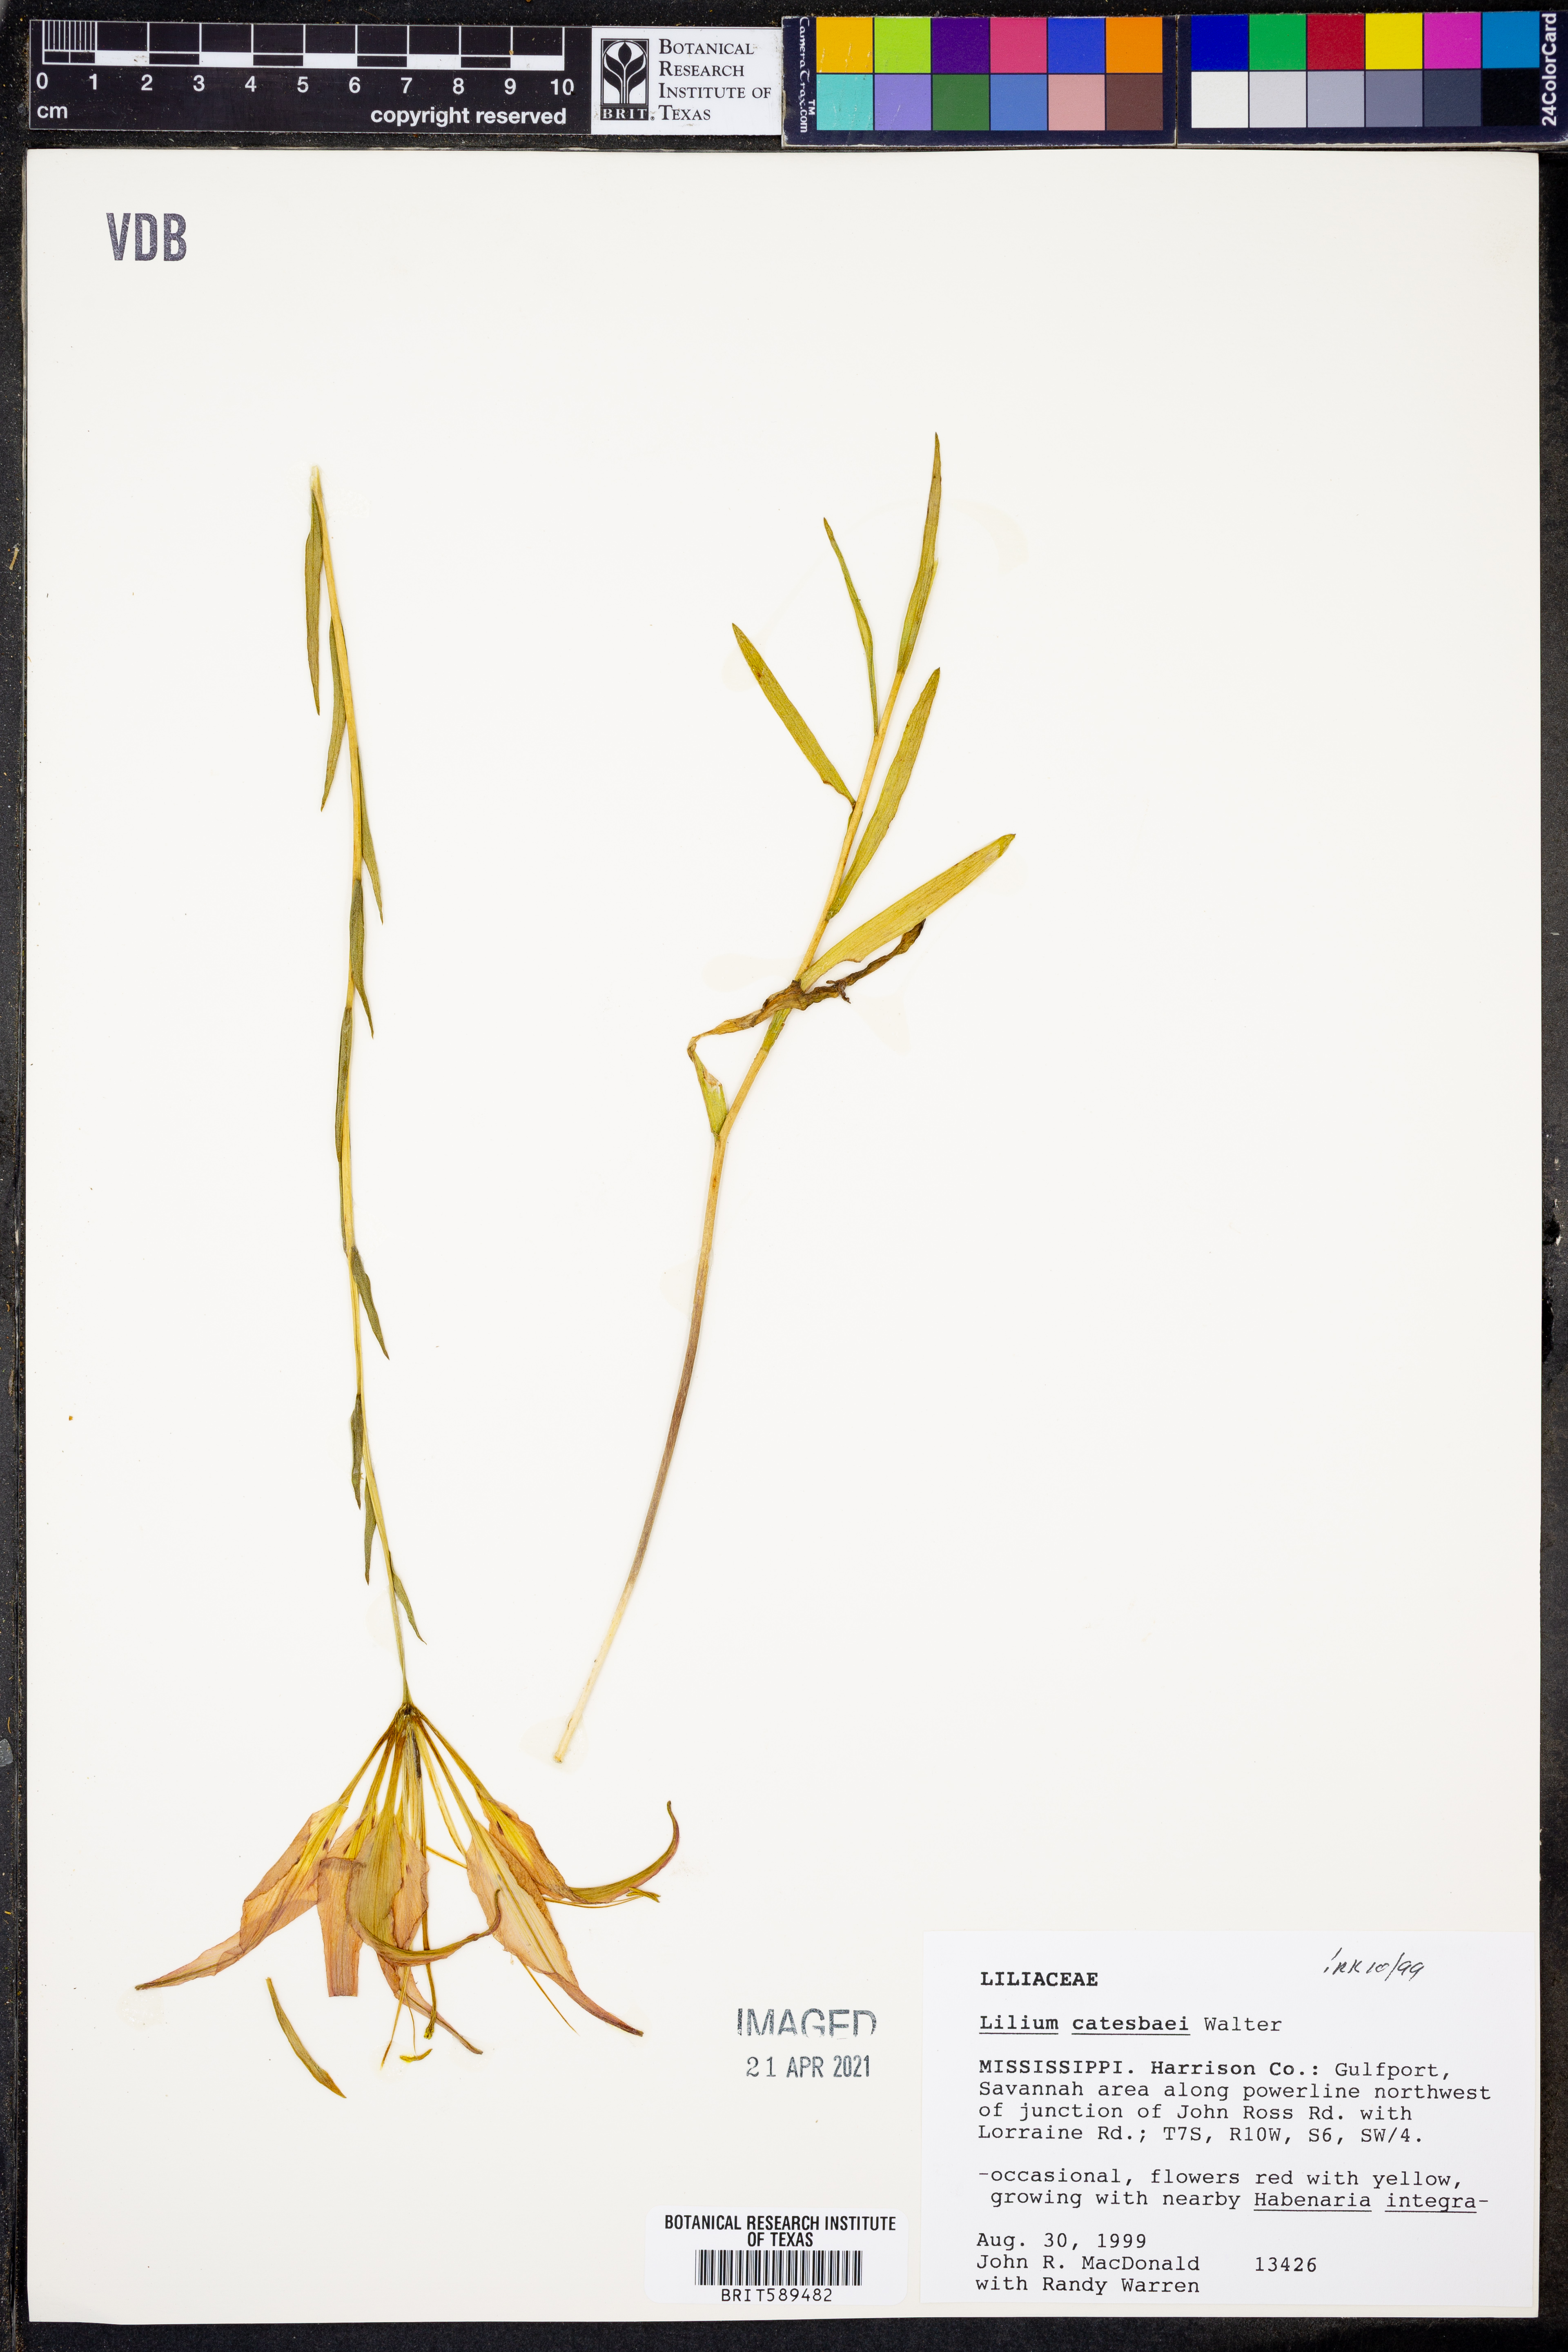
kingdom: Plantae
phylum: Tracheophyta
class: Liliopsida
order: Liliales
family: Liliaceae
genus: Lilium
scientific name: Lilium catesbaei
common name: Catesby's lily
